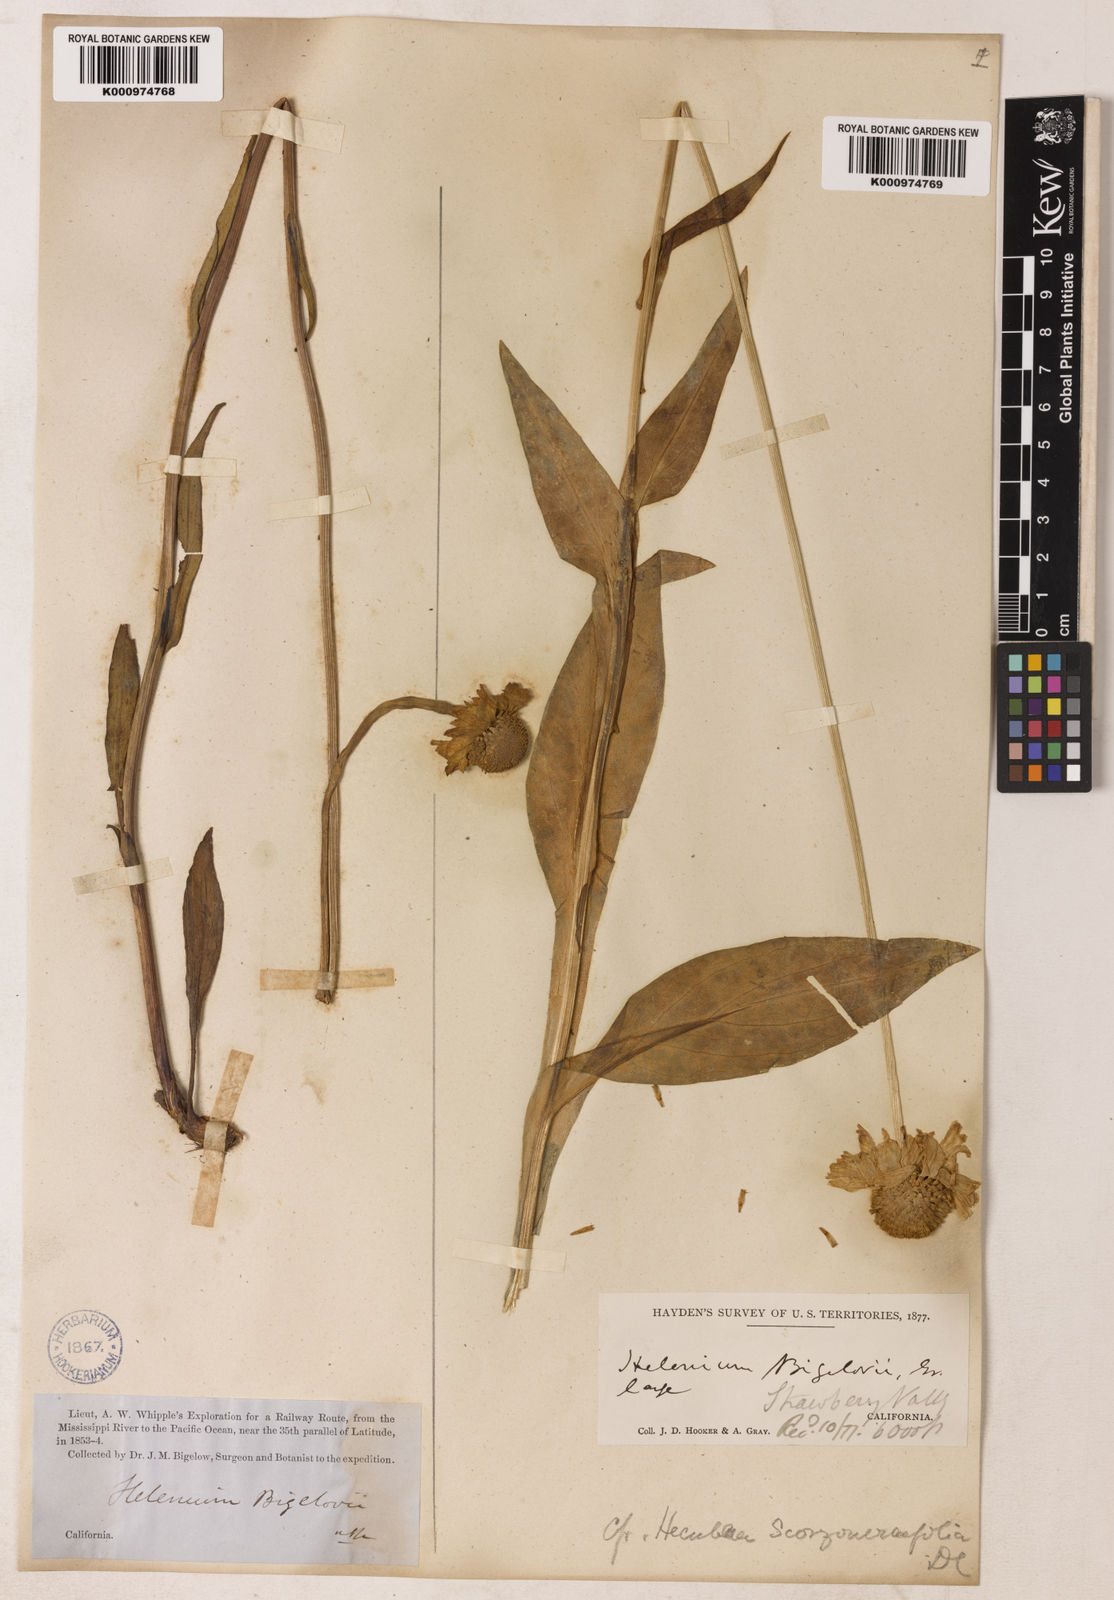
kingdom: Plantae
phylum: Tracheophyta
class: Magnoliopsida
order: Asterales
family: Asteraceae
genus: Helenium
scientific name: Helenium bigelovii
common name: Bigelow's sneezeweed
